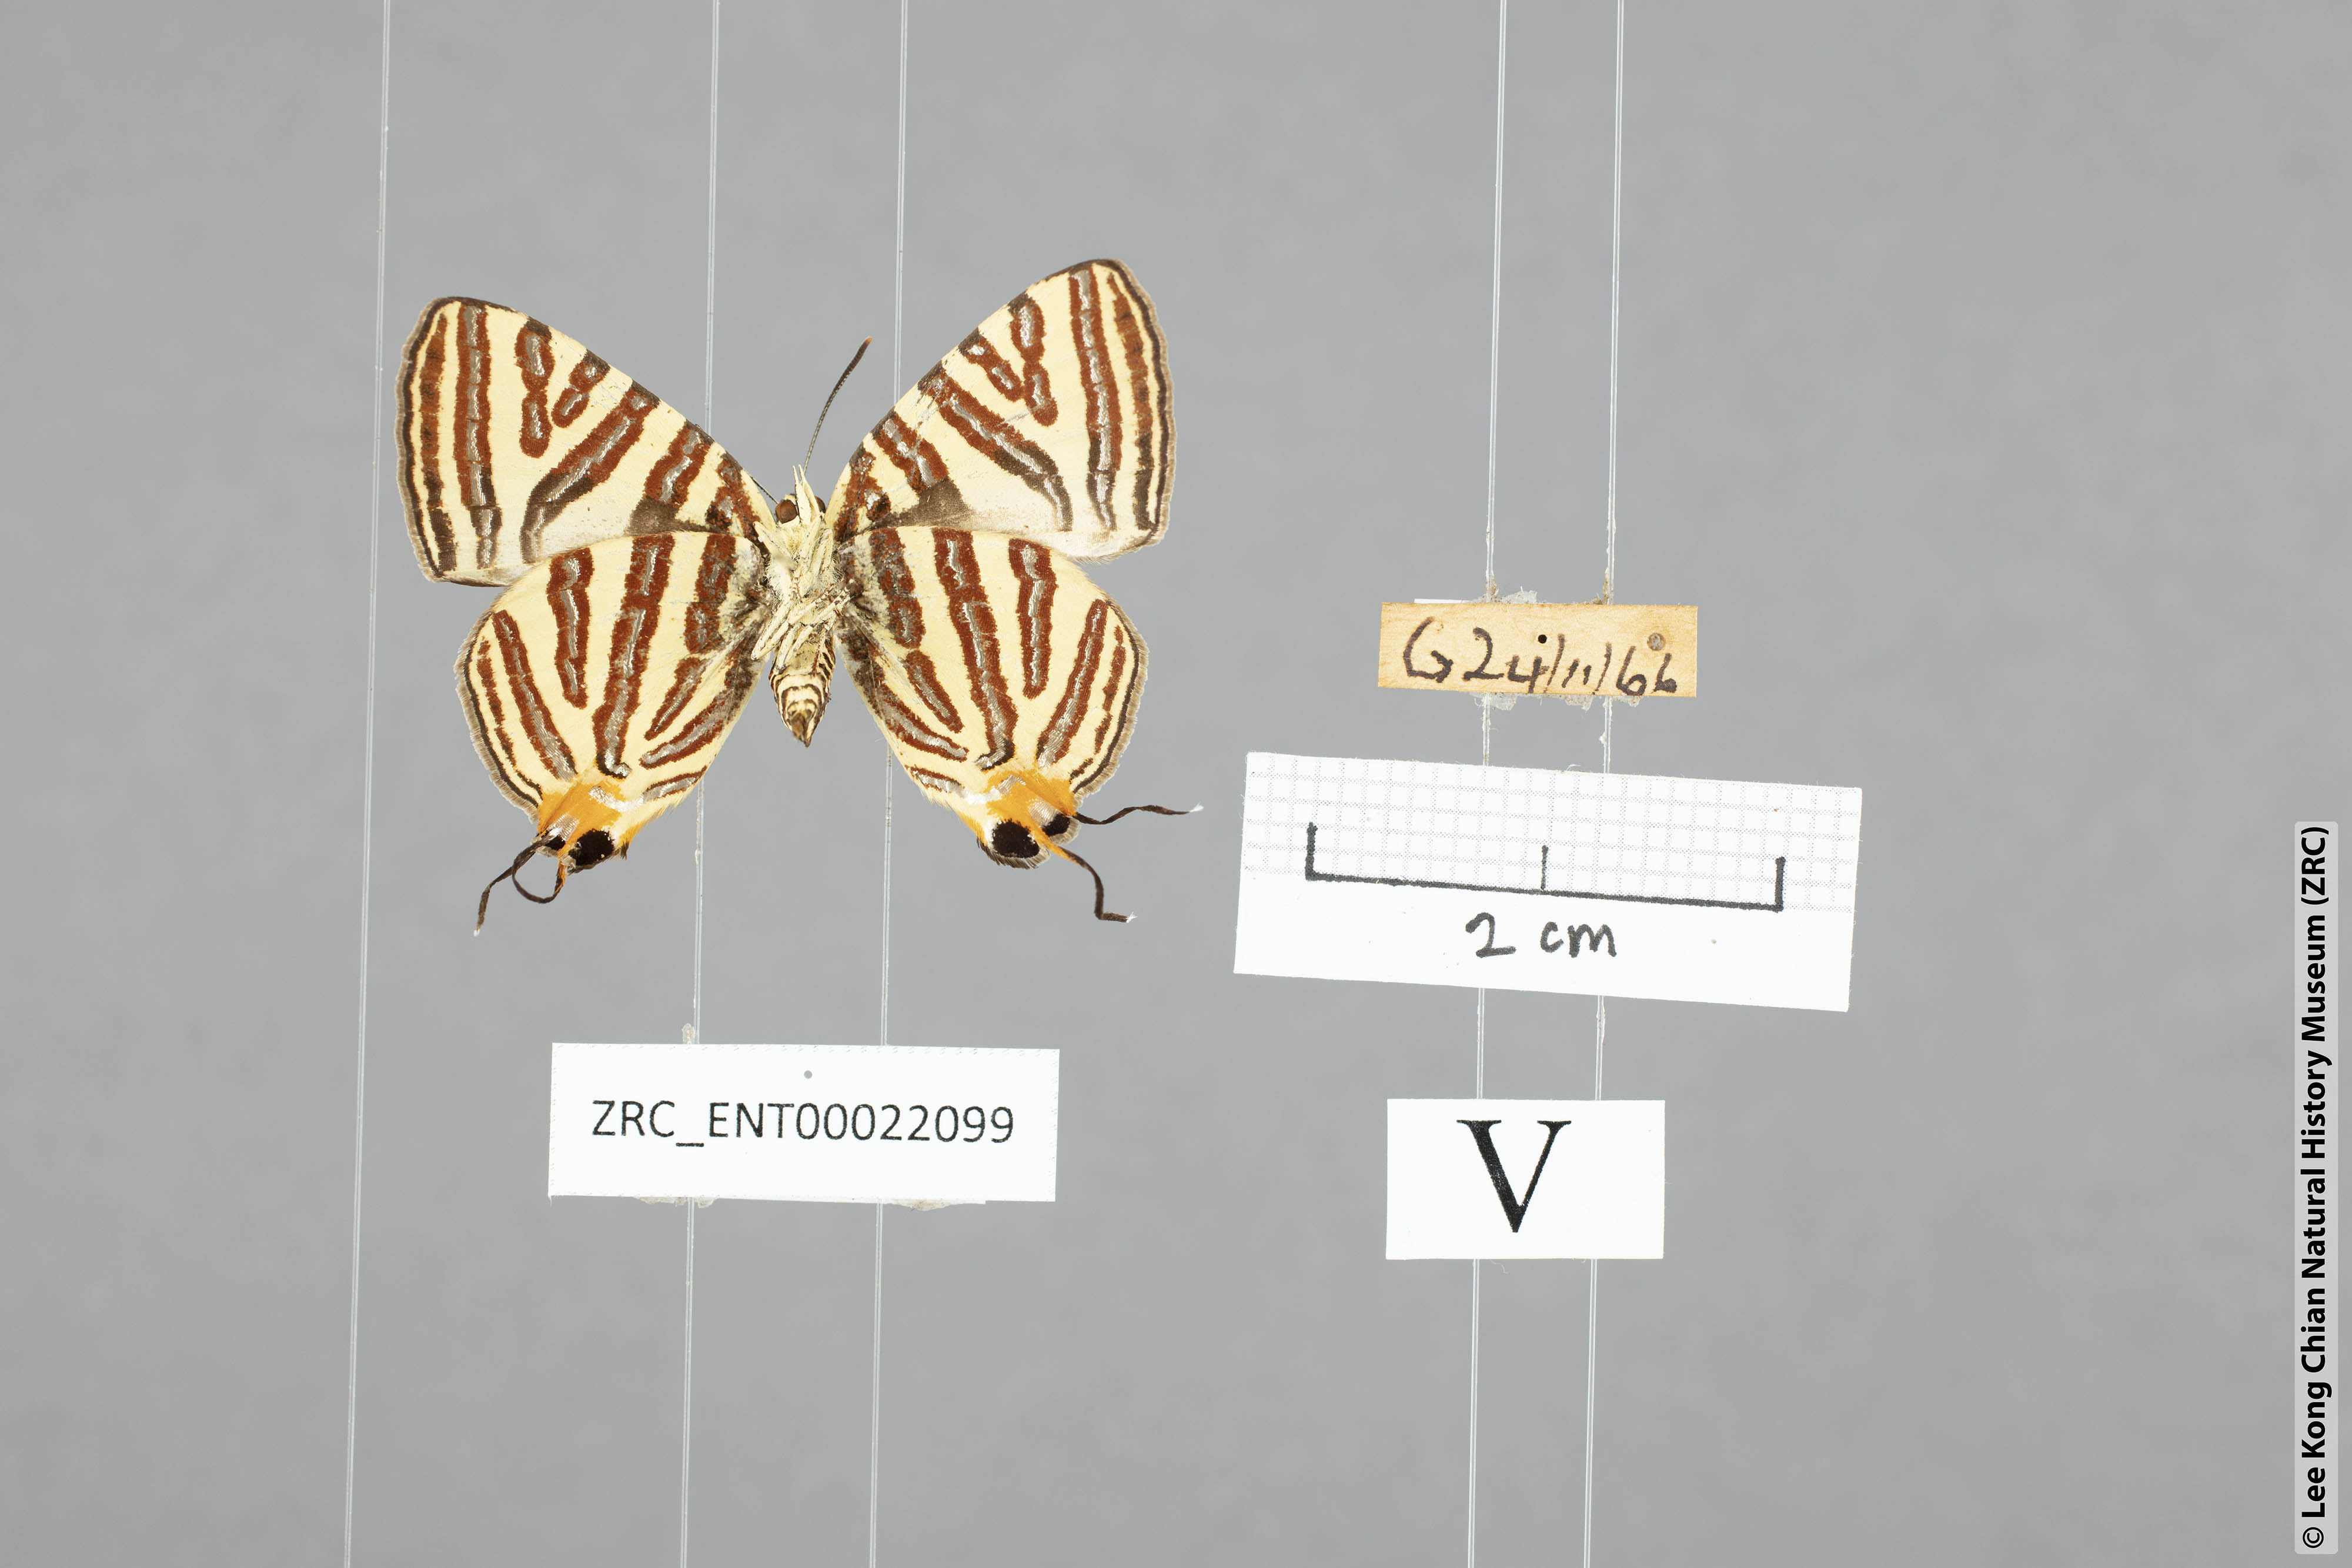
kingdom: Animalia
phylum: Arthropoda
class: Insecta
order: Lepidoptera
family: Lycaenidae
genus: Spindasis
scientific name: Spindasis syama
